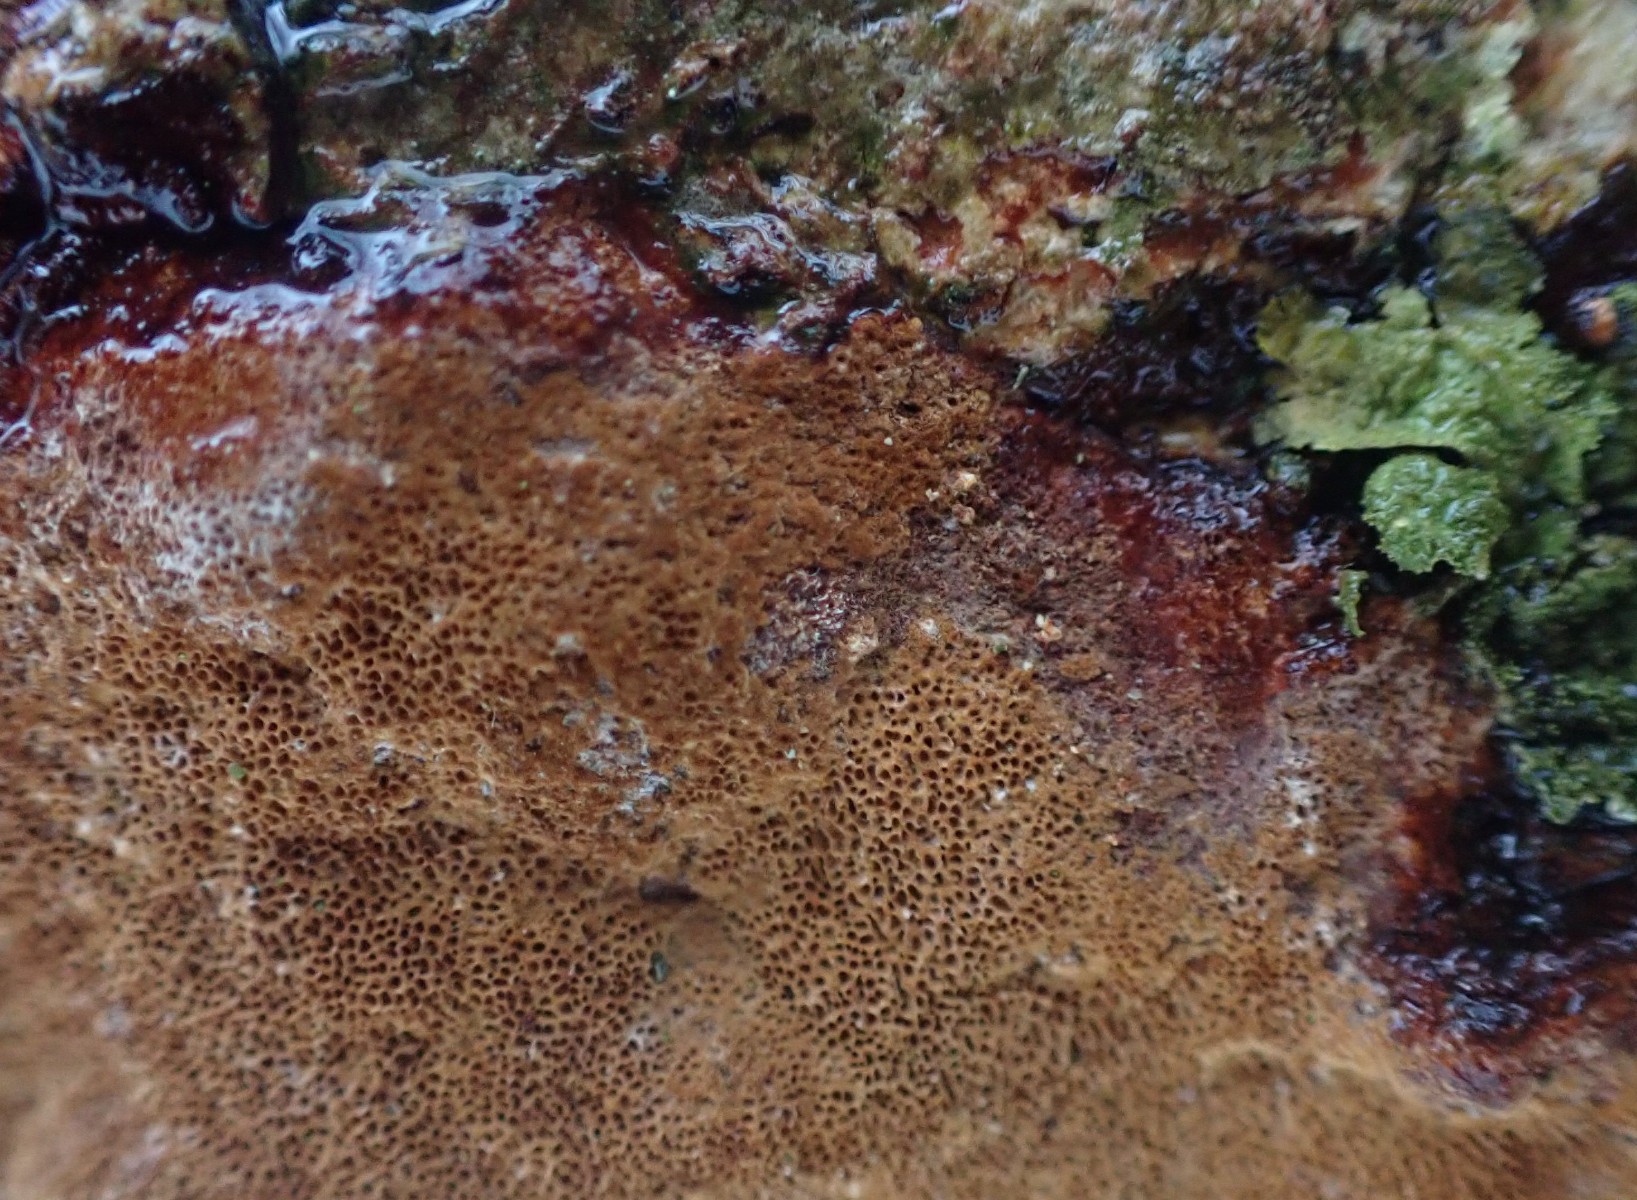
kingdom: Fungi
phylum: Basidiomycota
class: Agaricomycetes
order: Hymenochaetales
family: Hymenochaetaceae
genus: Fuscoporia
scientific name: Fuscoporia ferrea
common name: skorpe-ildporesvamp
